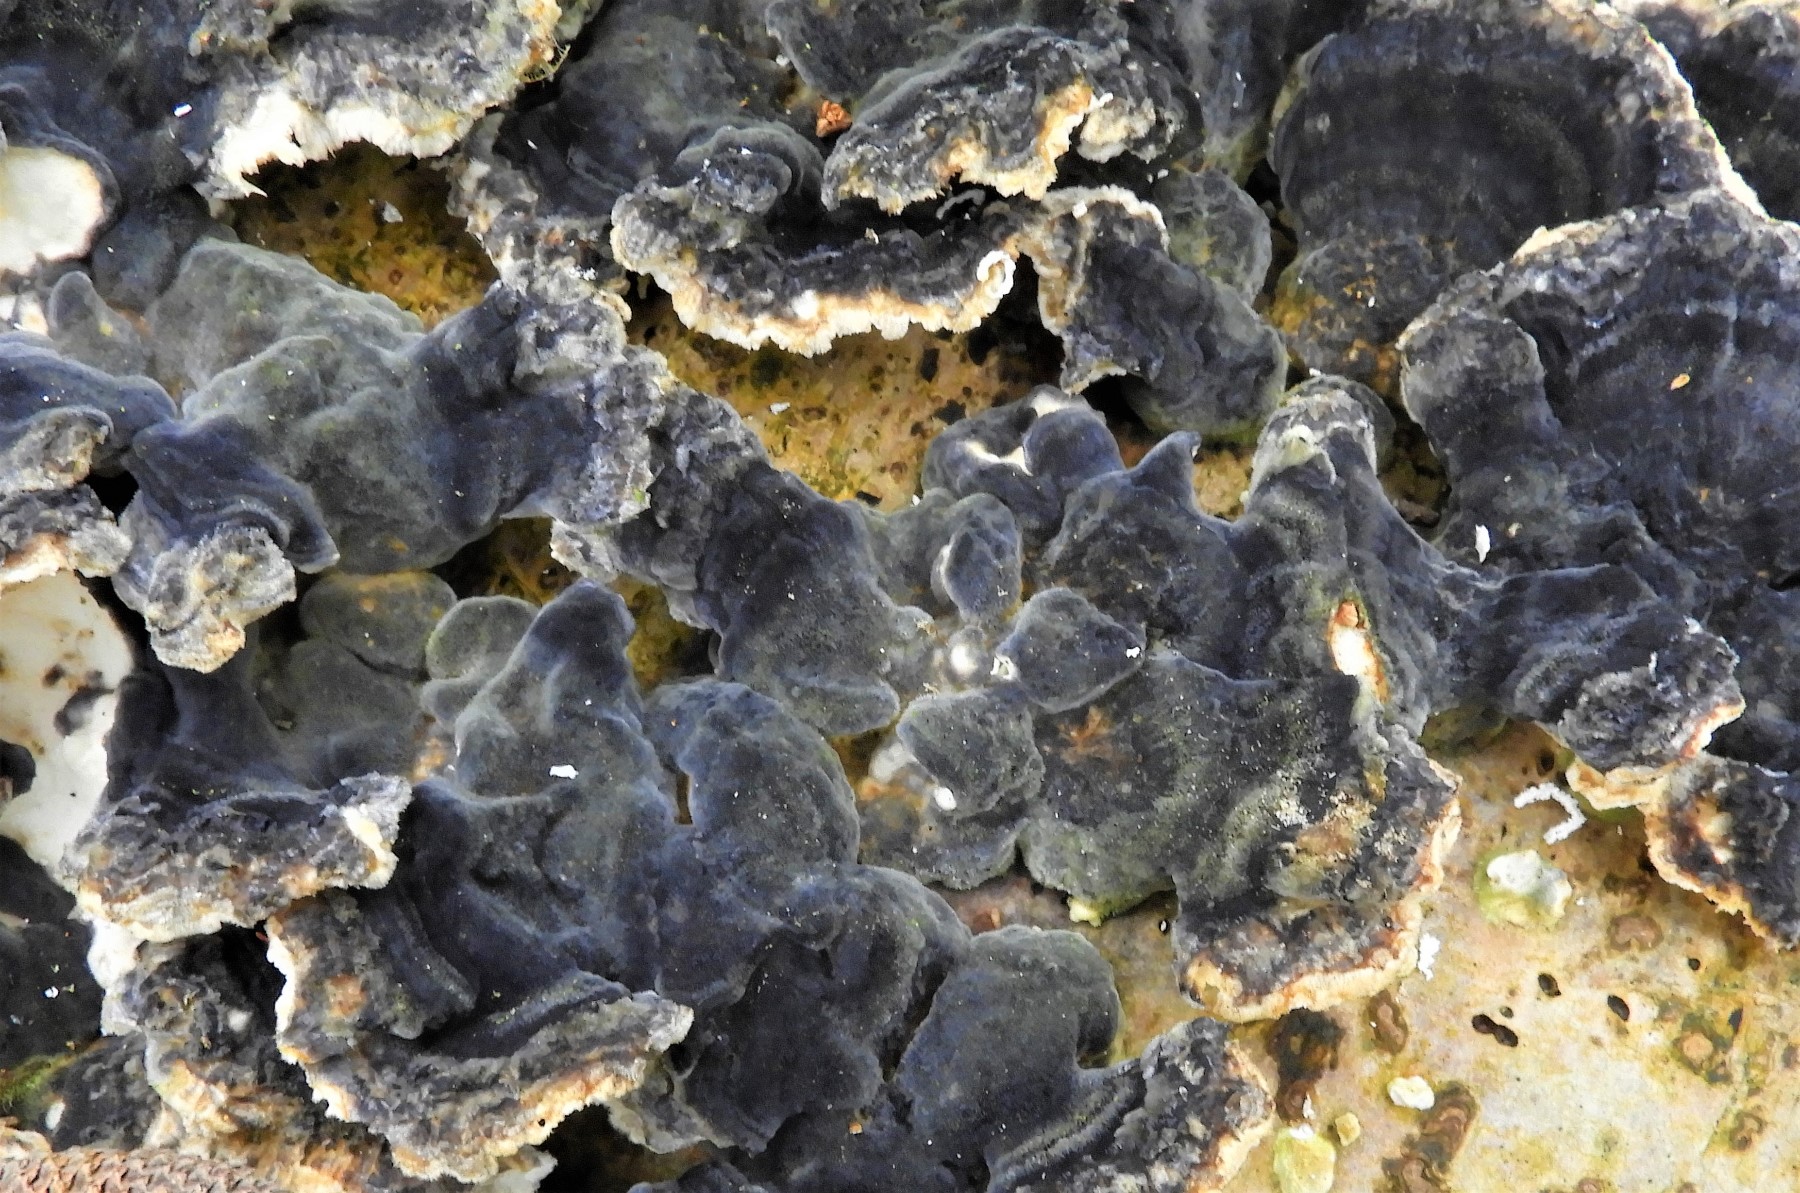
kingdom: Fungi
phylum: Basidiomycota
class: Agaricomycetes
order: Polyporales
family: Polyporaceae
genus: Trametes
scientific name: Trametes versicolor
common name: broget læderporesvamp
